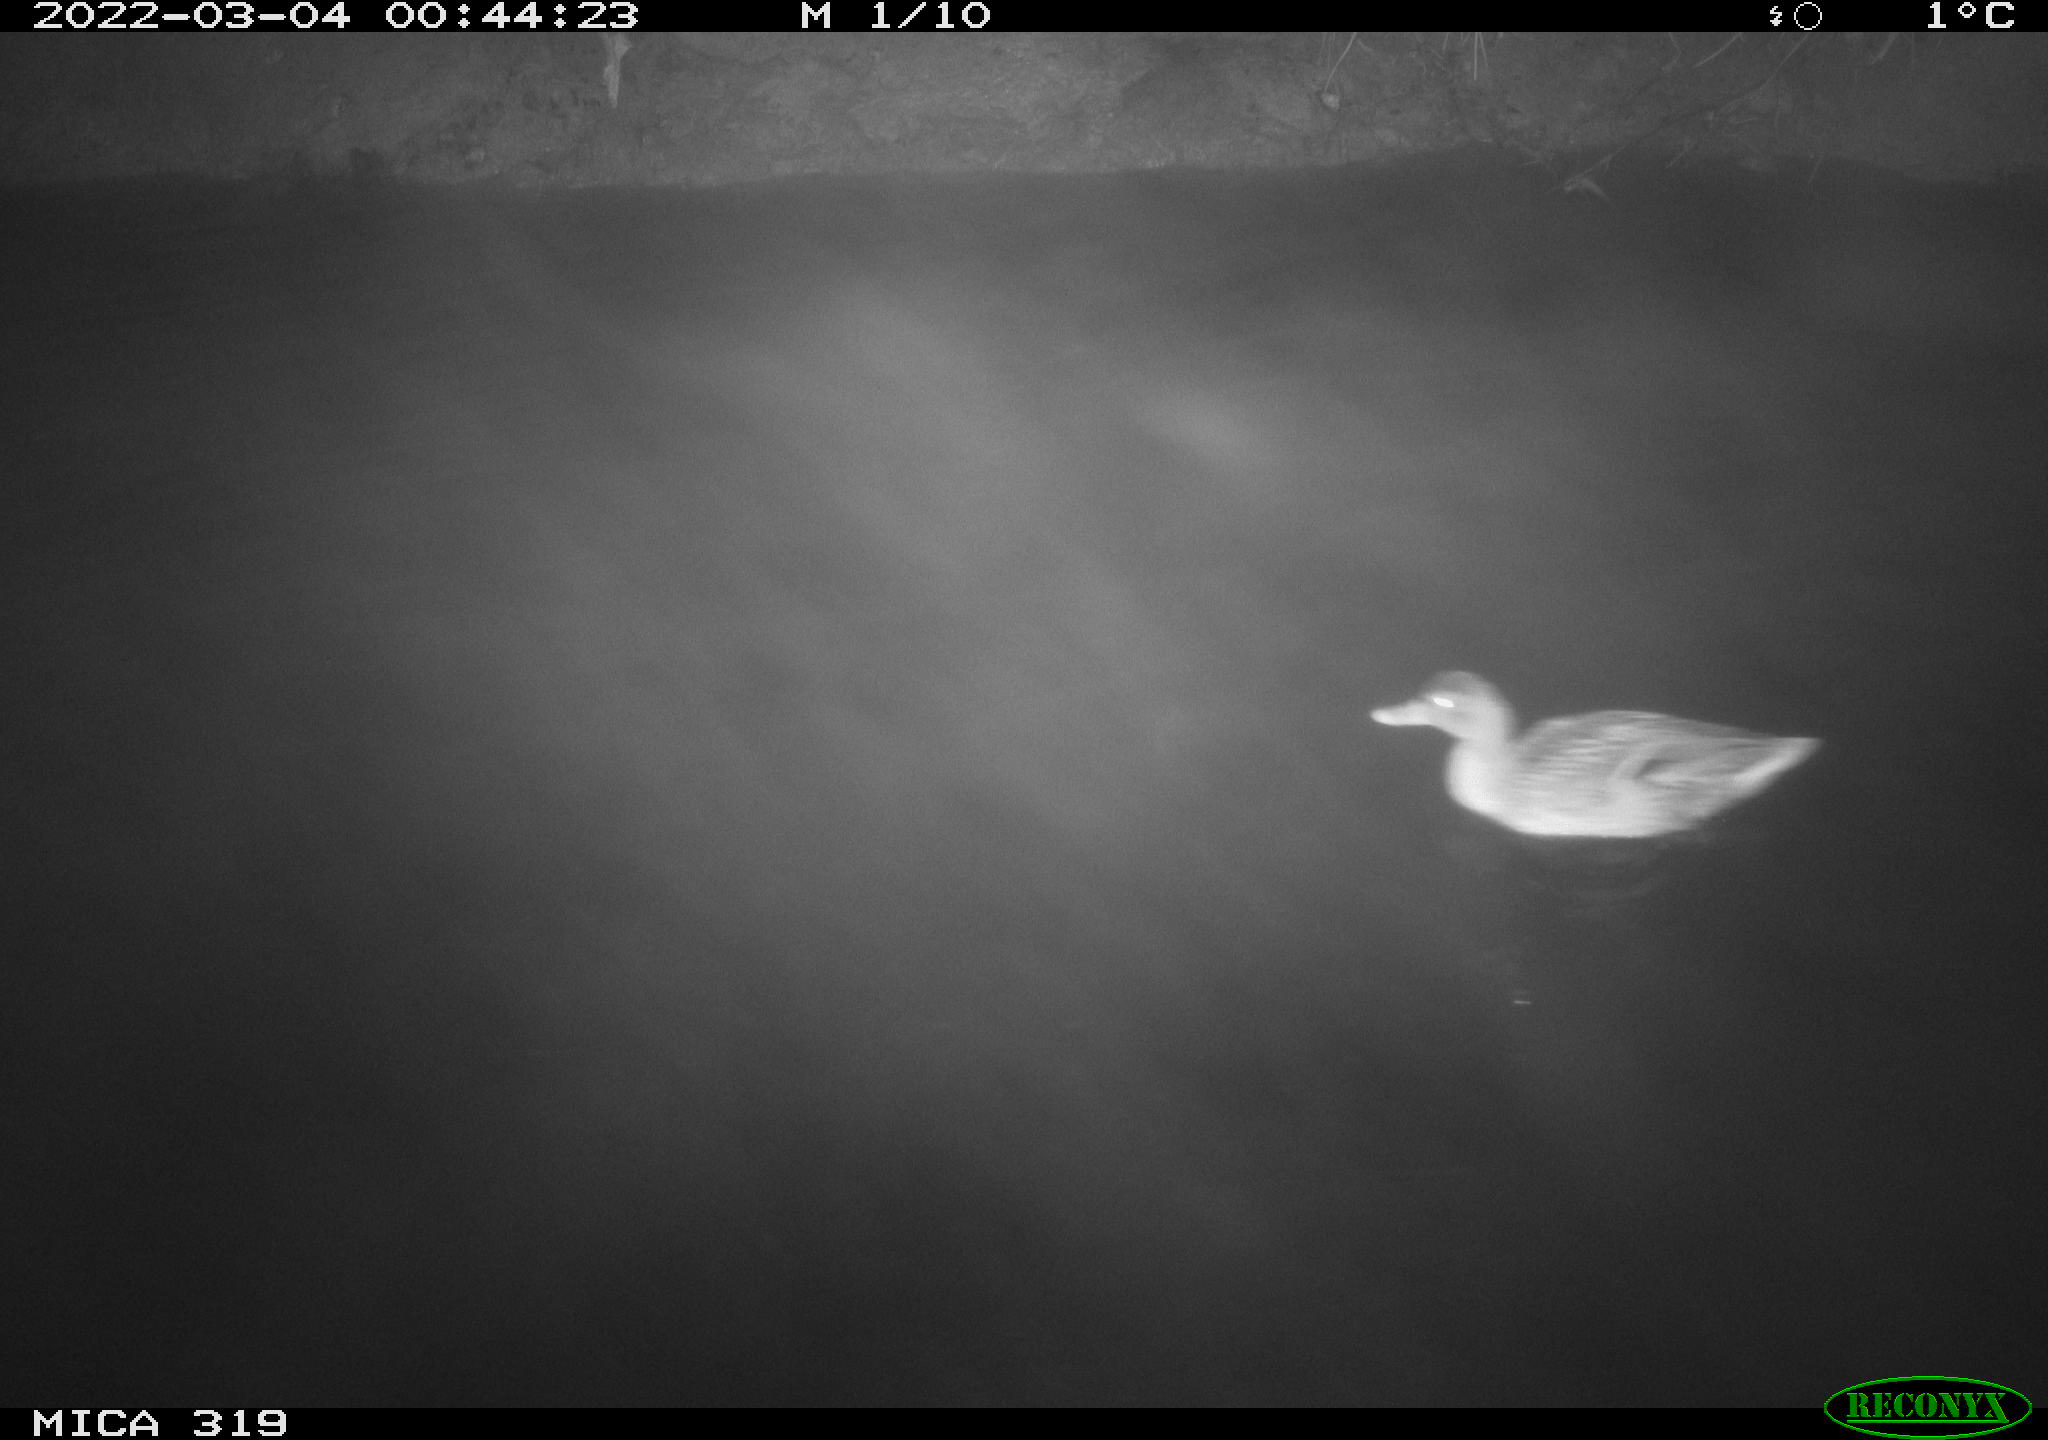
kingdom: Animalia
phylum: Chordata
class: Aves
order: Anseriformes
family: Anatidae
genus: Anas
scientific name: Anas platyrhynchos
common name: Mallard
